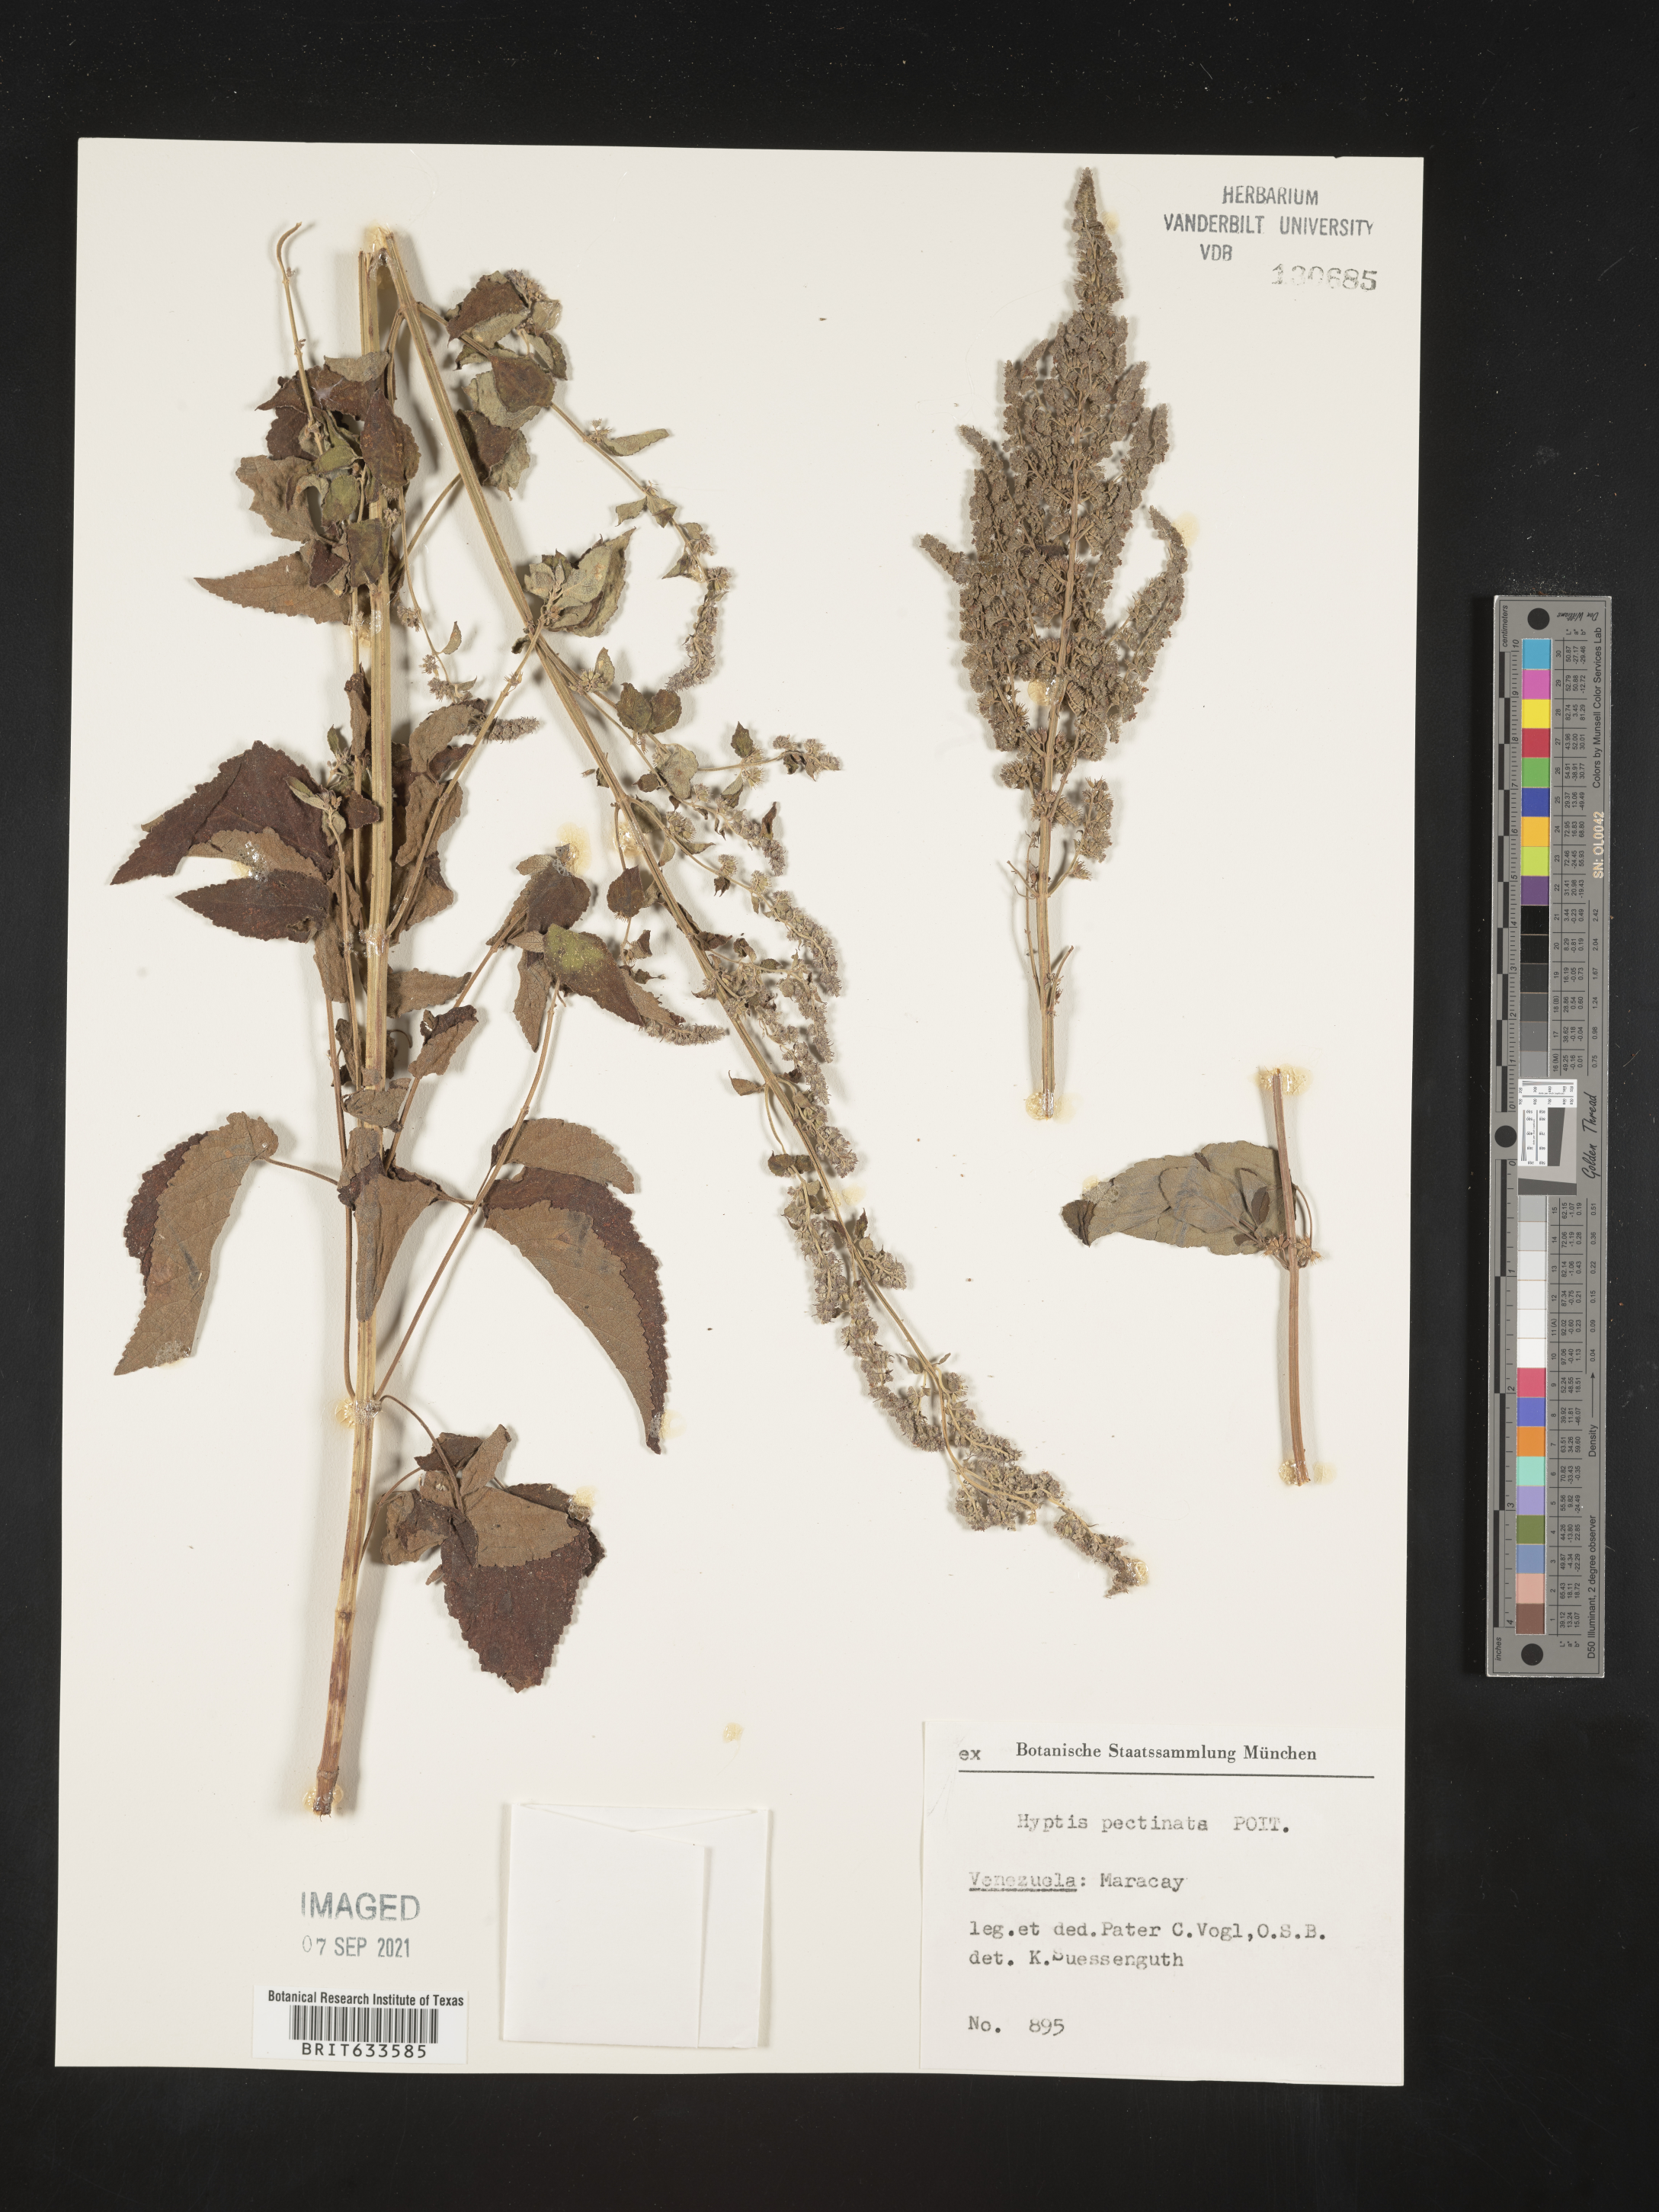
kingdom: Plantae
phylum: Tracheophyta
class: Magnoliopsida
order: Lamiales
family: Lamiaceae
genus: Hyptis
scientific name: Hyptis
